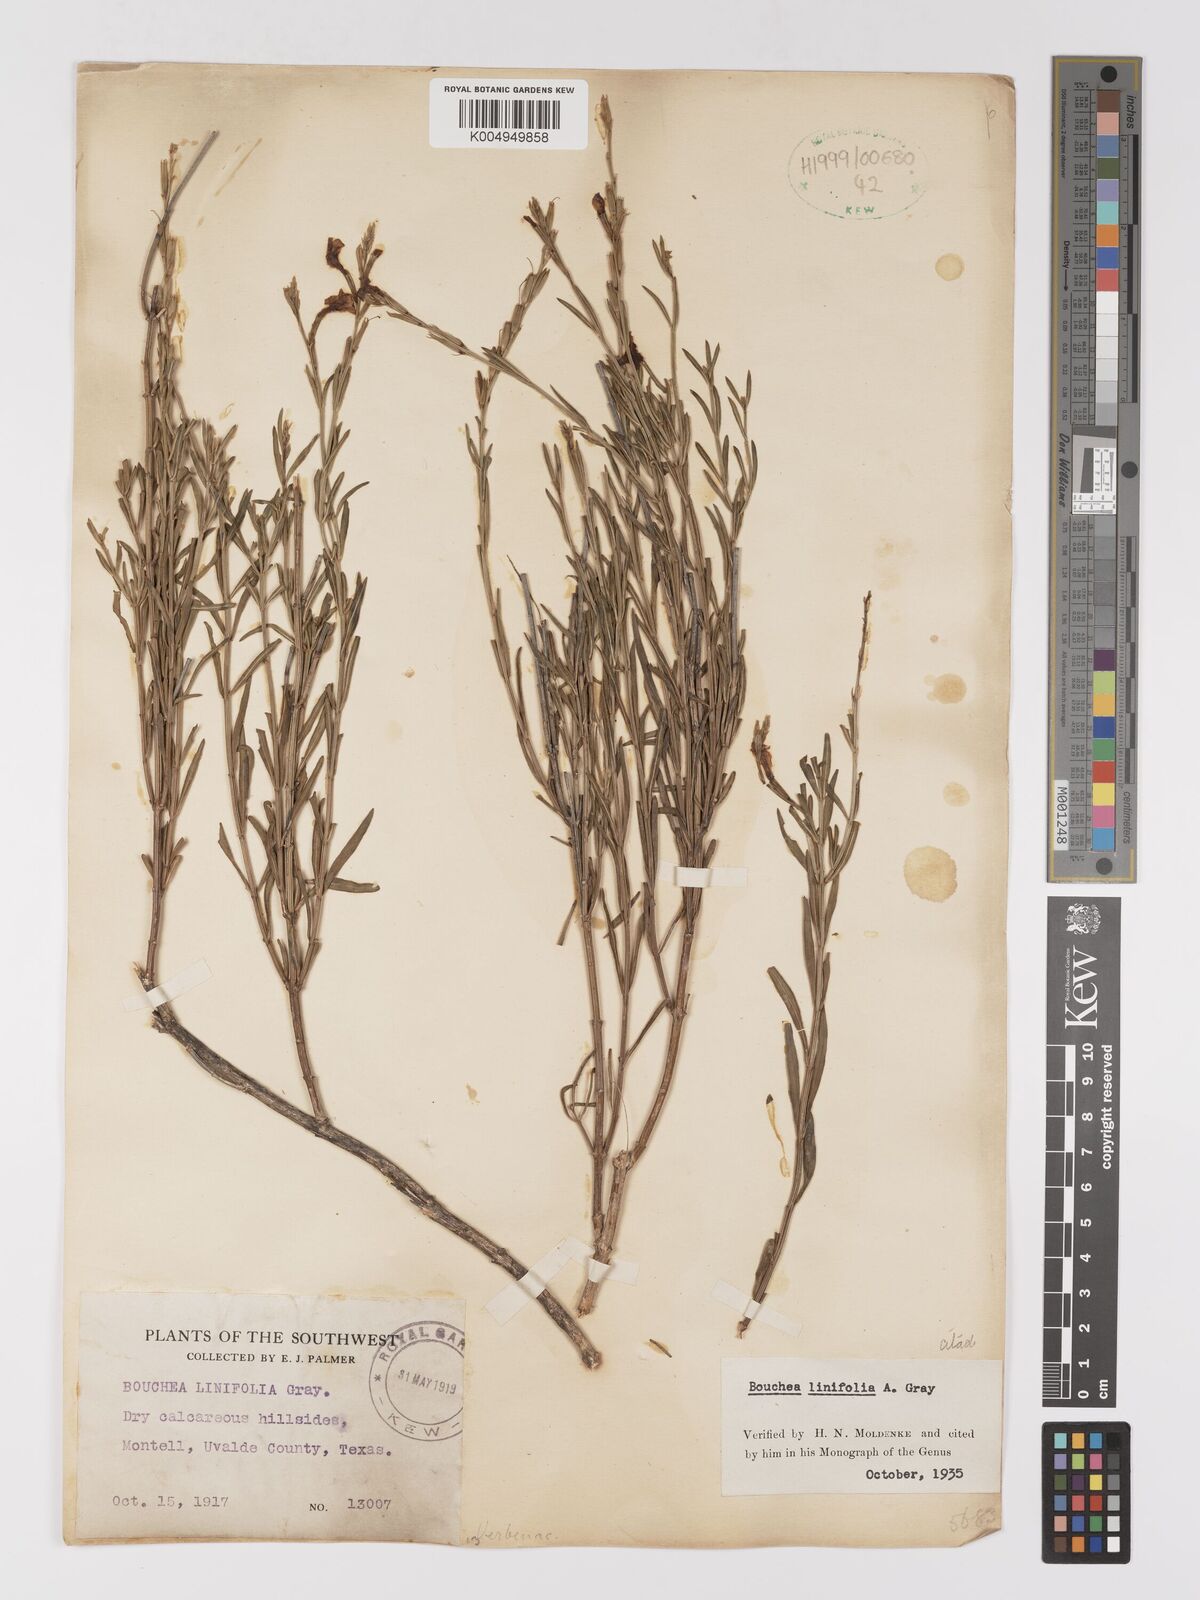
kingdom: Plantae
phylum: Tracheophyta
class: Magnoliopsida
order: Lamiales
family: Verbenaceae
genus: Bouchea
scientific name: Bouchea linifolia
